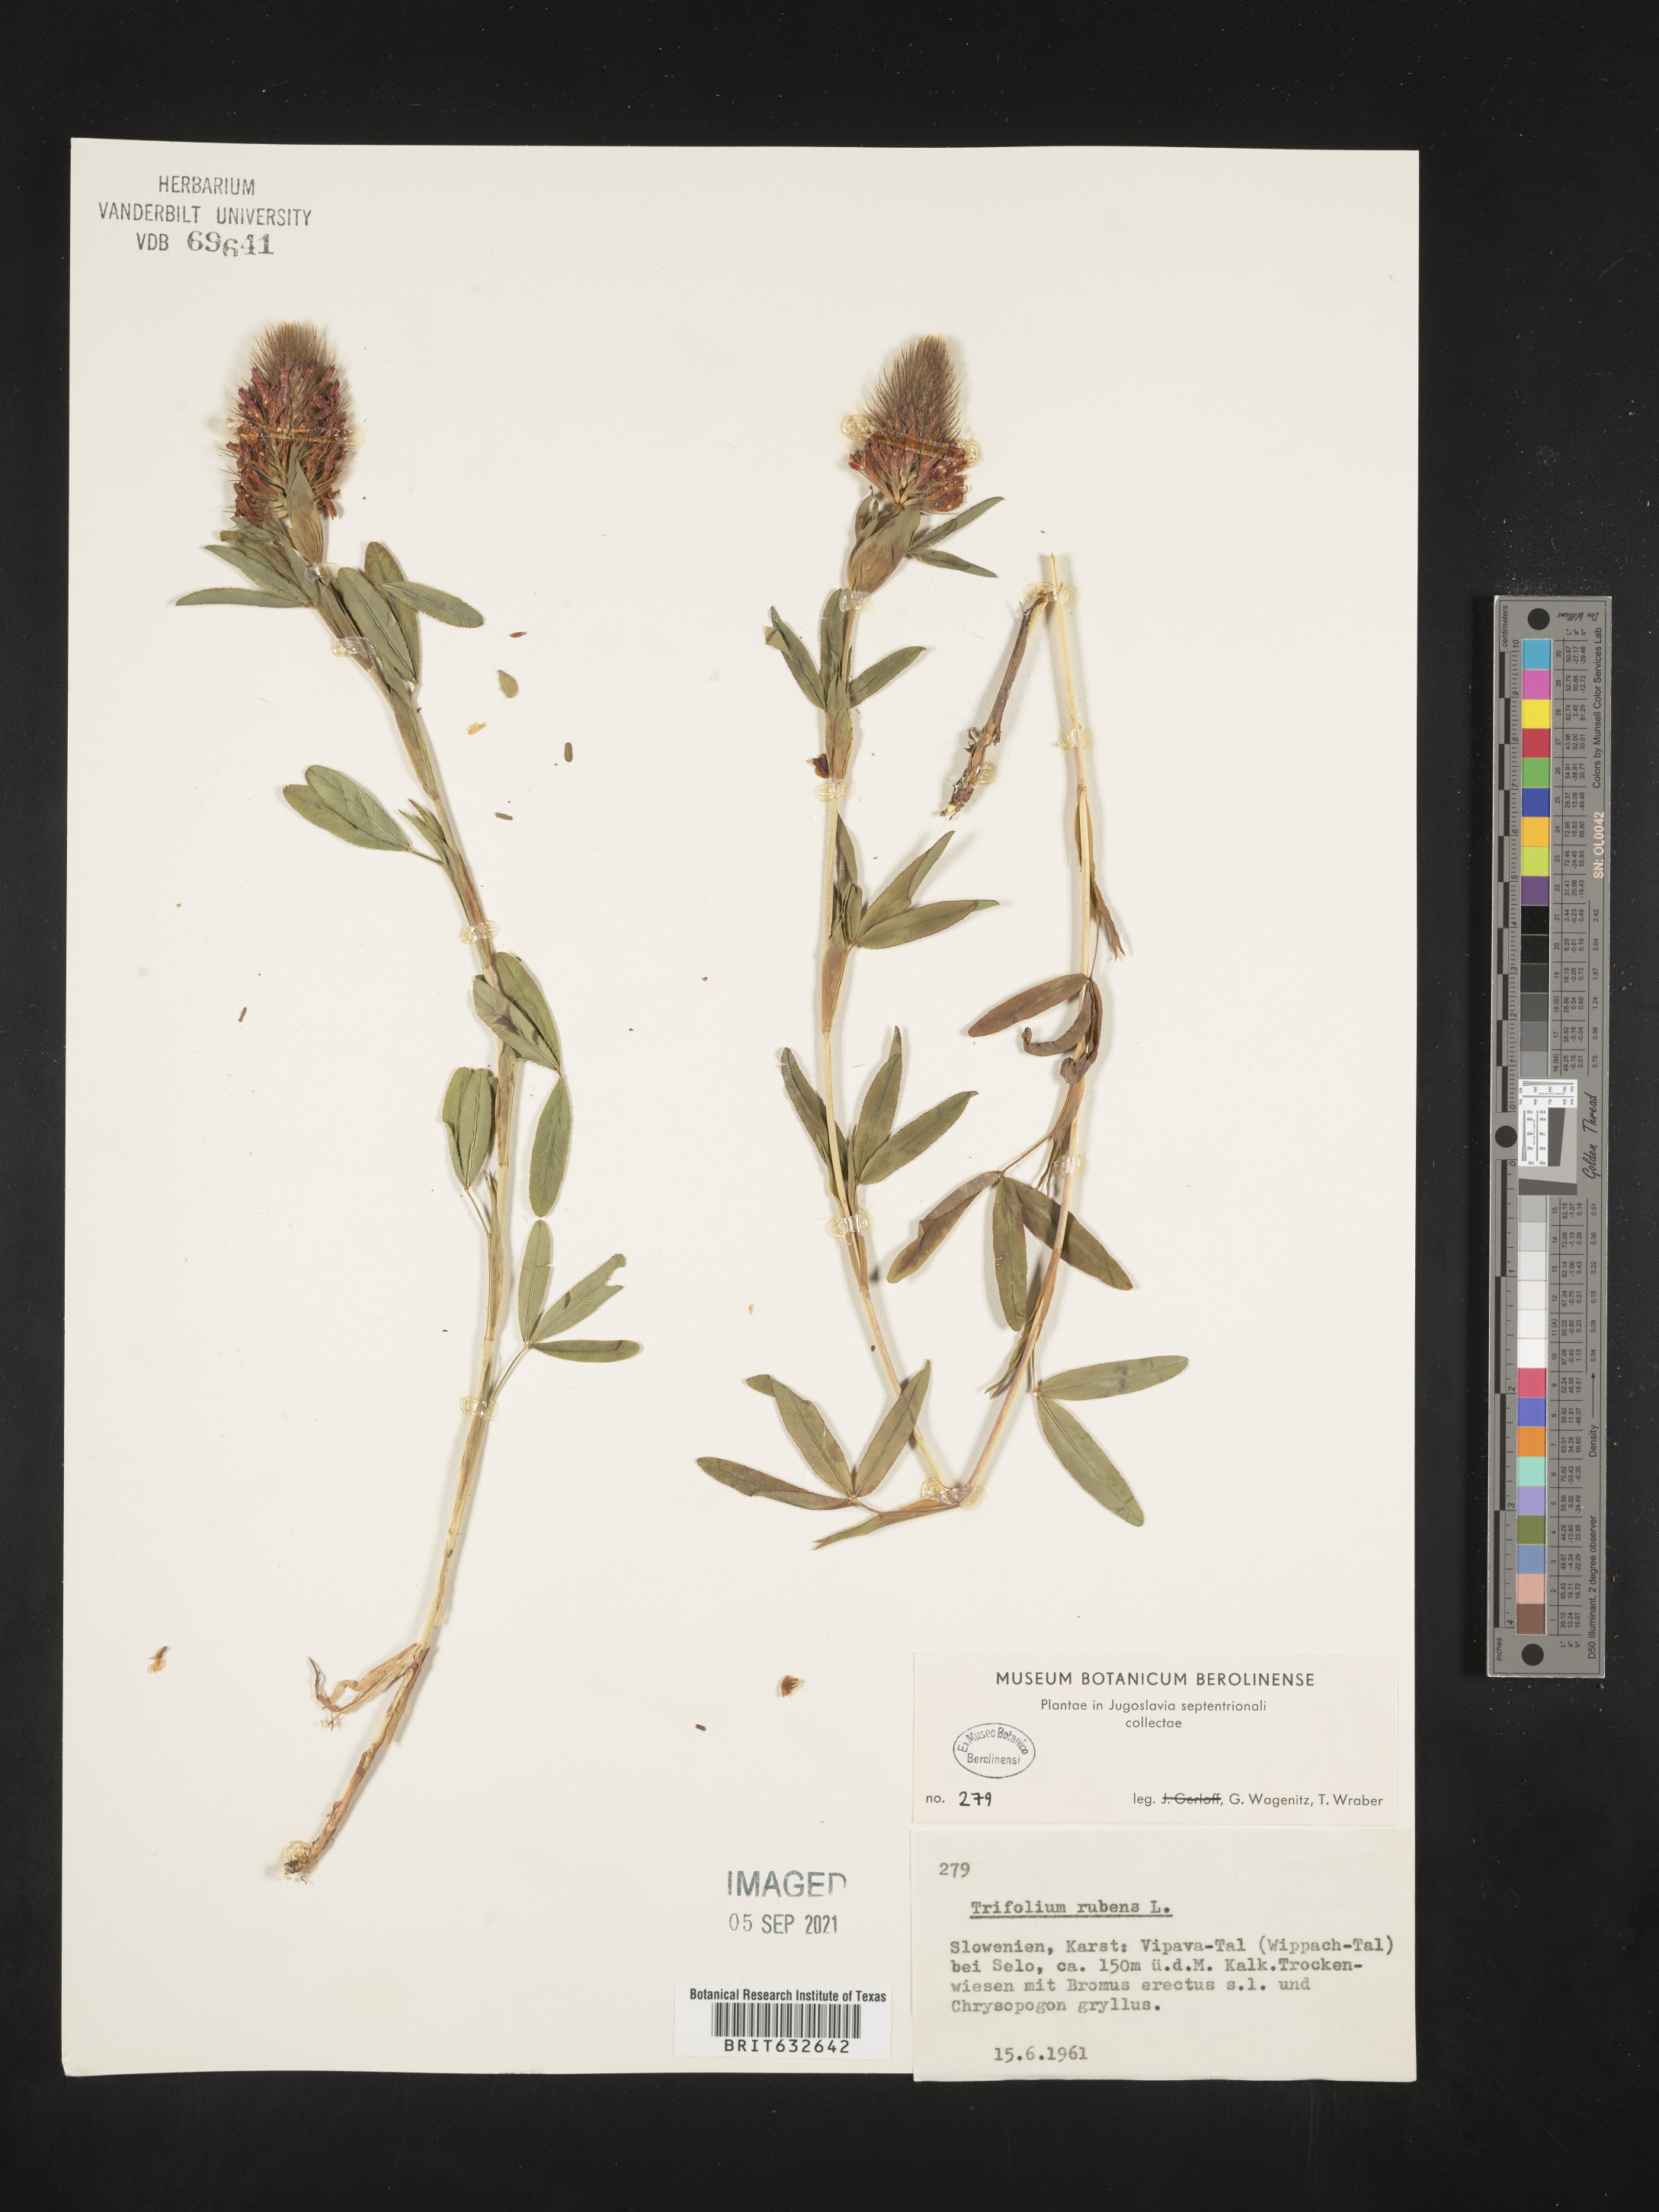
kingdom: Plantae
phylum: Tracheophyta
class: Magnoliopsida
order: Fabales
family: Fabaceae
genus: Trifolium
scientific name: Trifolium
